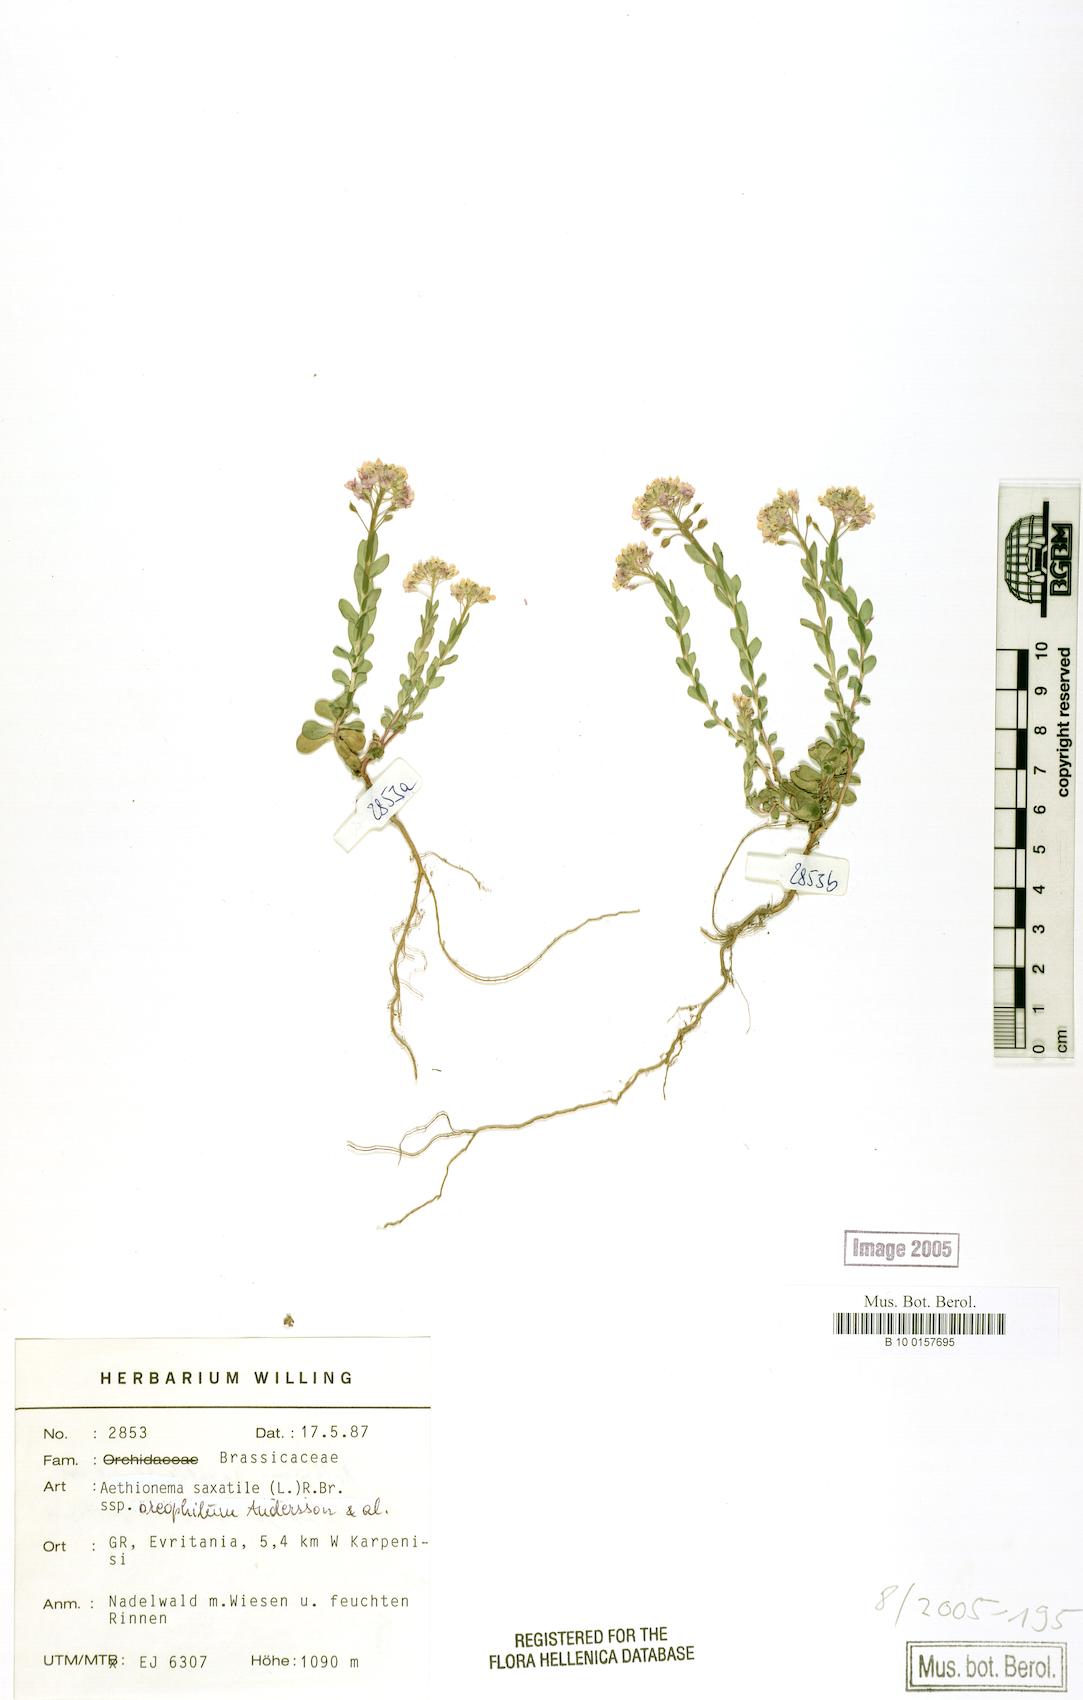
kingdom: Plantae
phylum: Tracheophyta
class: Magnoliopsida
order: Brassicales
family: Brassicaceae
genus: Aethionema
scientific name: Aethionema saxatile
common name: Burnt candytuft
